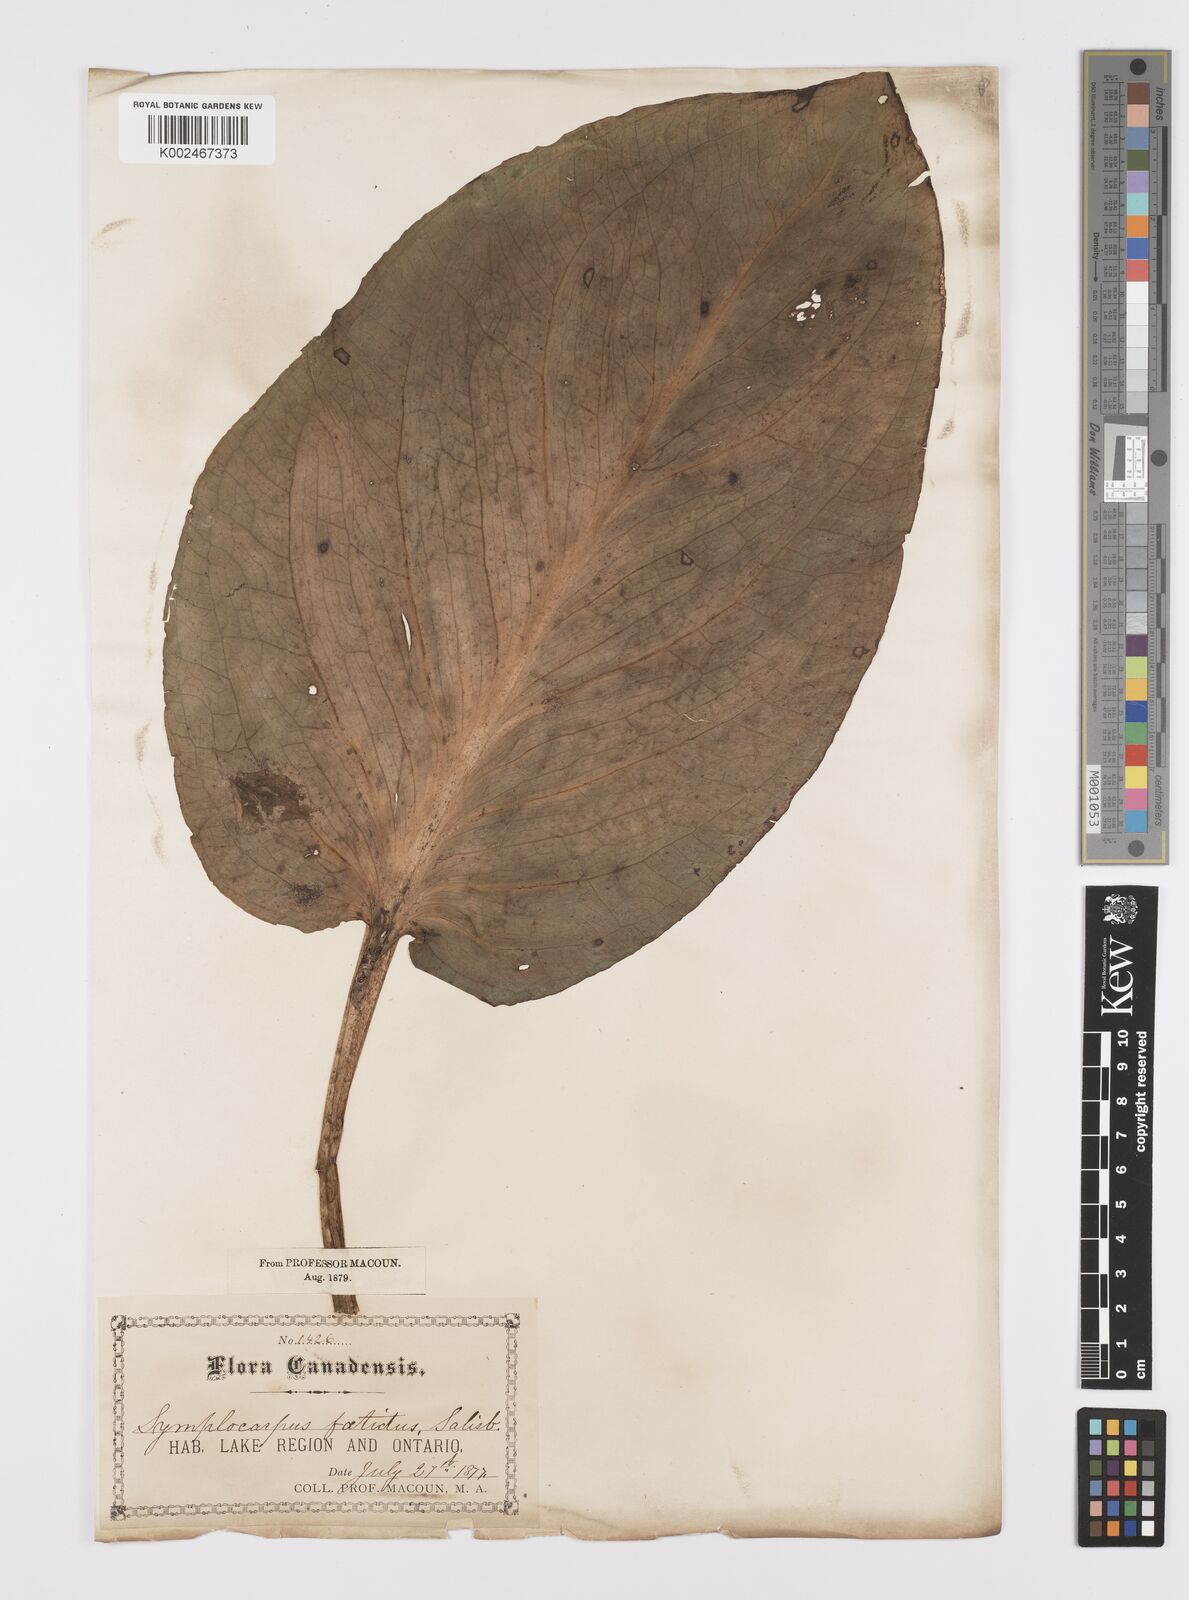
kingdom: Plantae
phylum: Tracheophyta
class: Liliopsida
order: Alismatales
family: Araceae
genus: Symplocarpus
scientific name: Symplocarpus foetidus
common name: Eastern skunk cabbage
